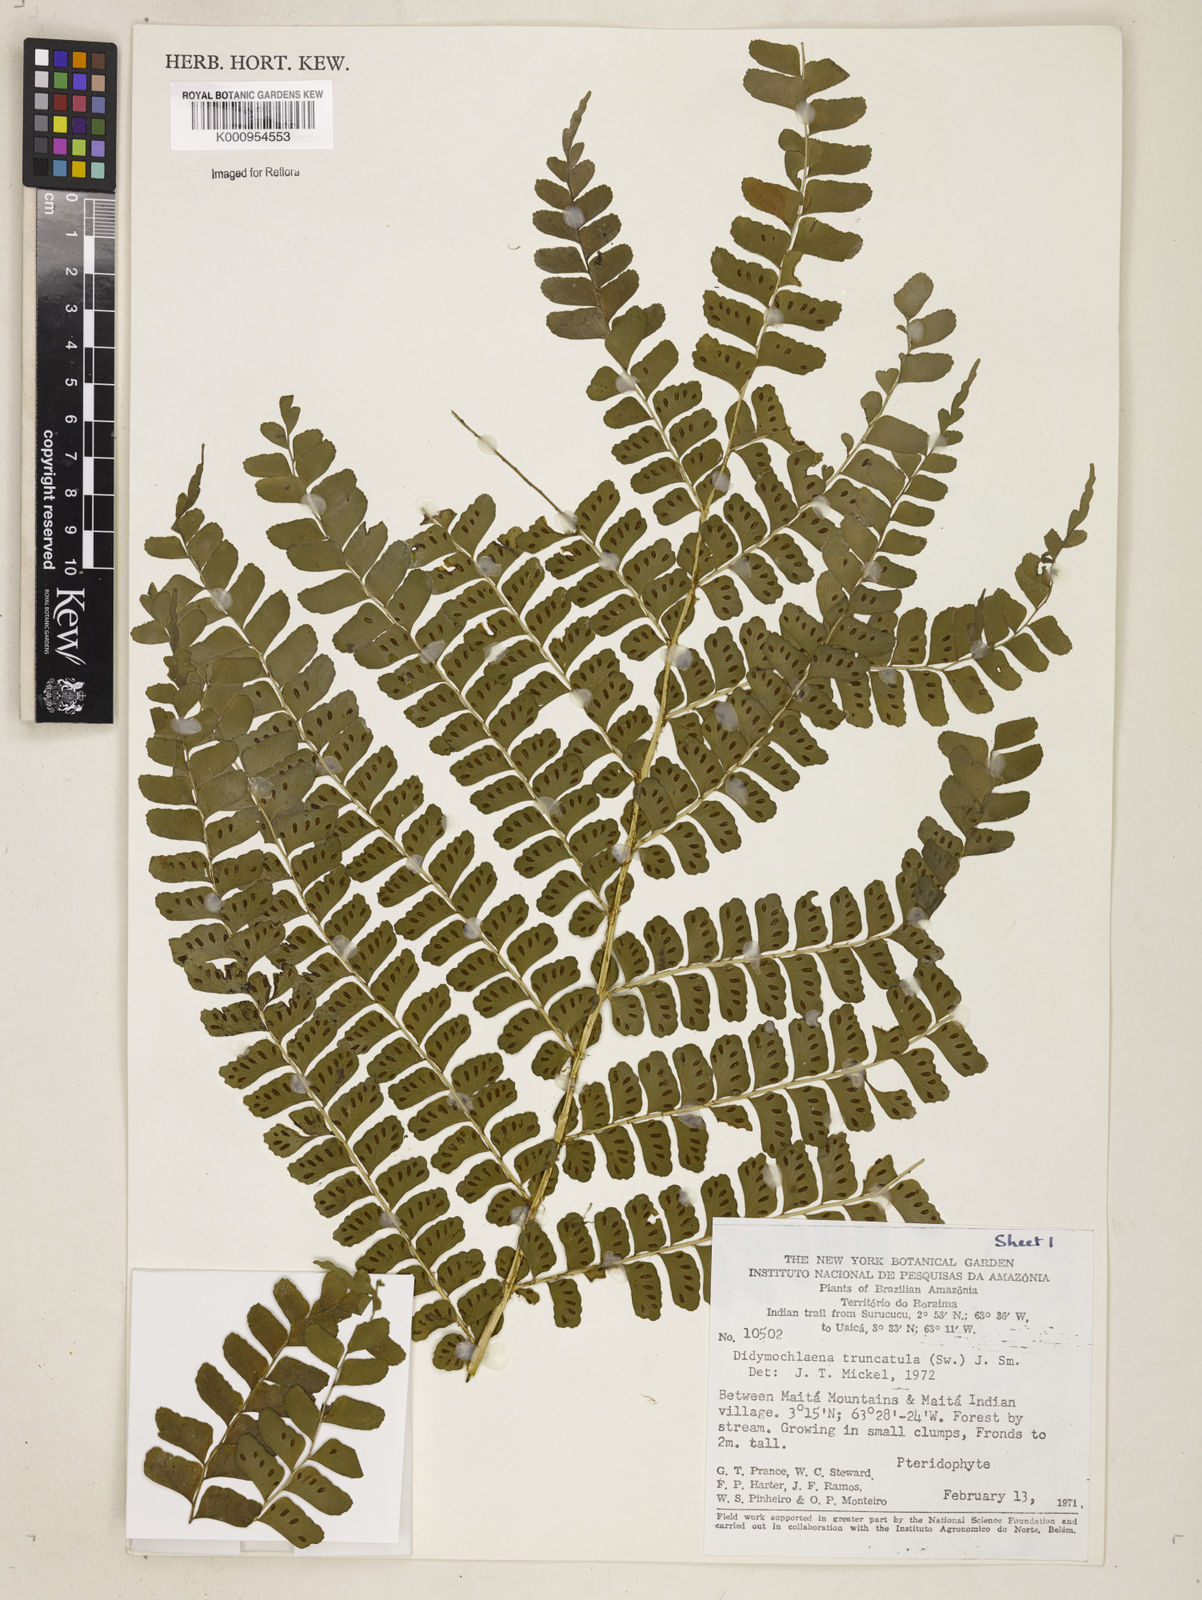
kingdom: Plantae
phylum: Tracheophyta
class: Polypodiopsida
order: Polypodiales
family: Didymochlaenaceae
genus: Didymochlaena
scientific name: Didymochlaena truncatula
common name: Mahogany fern
